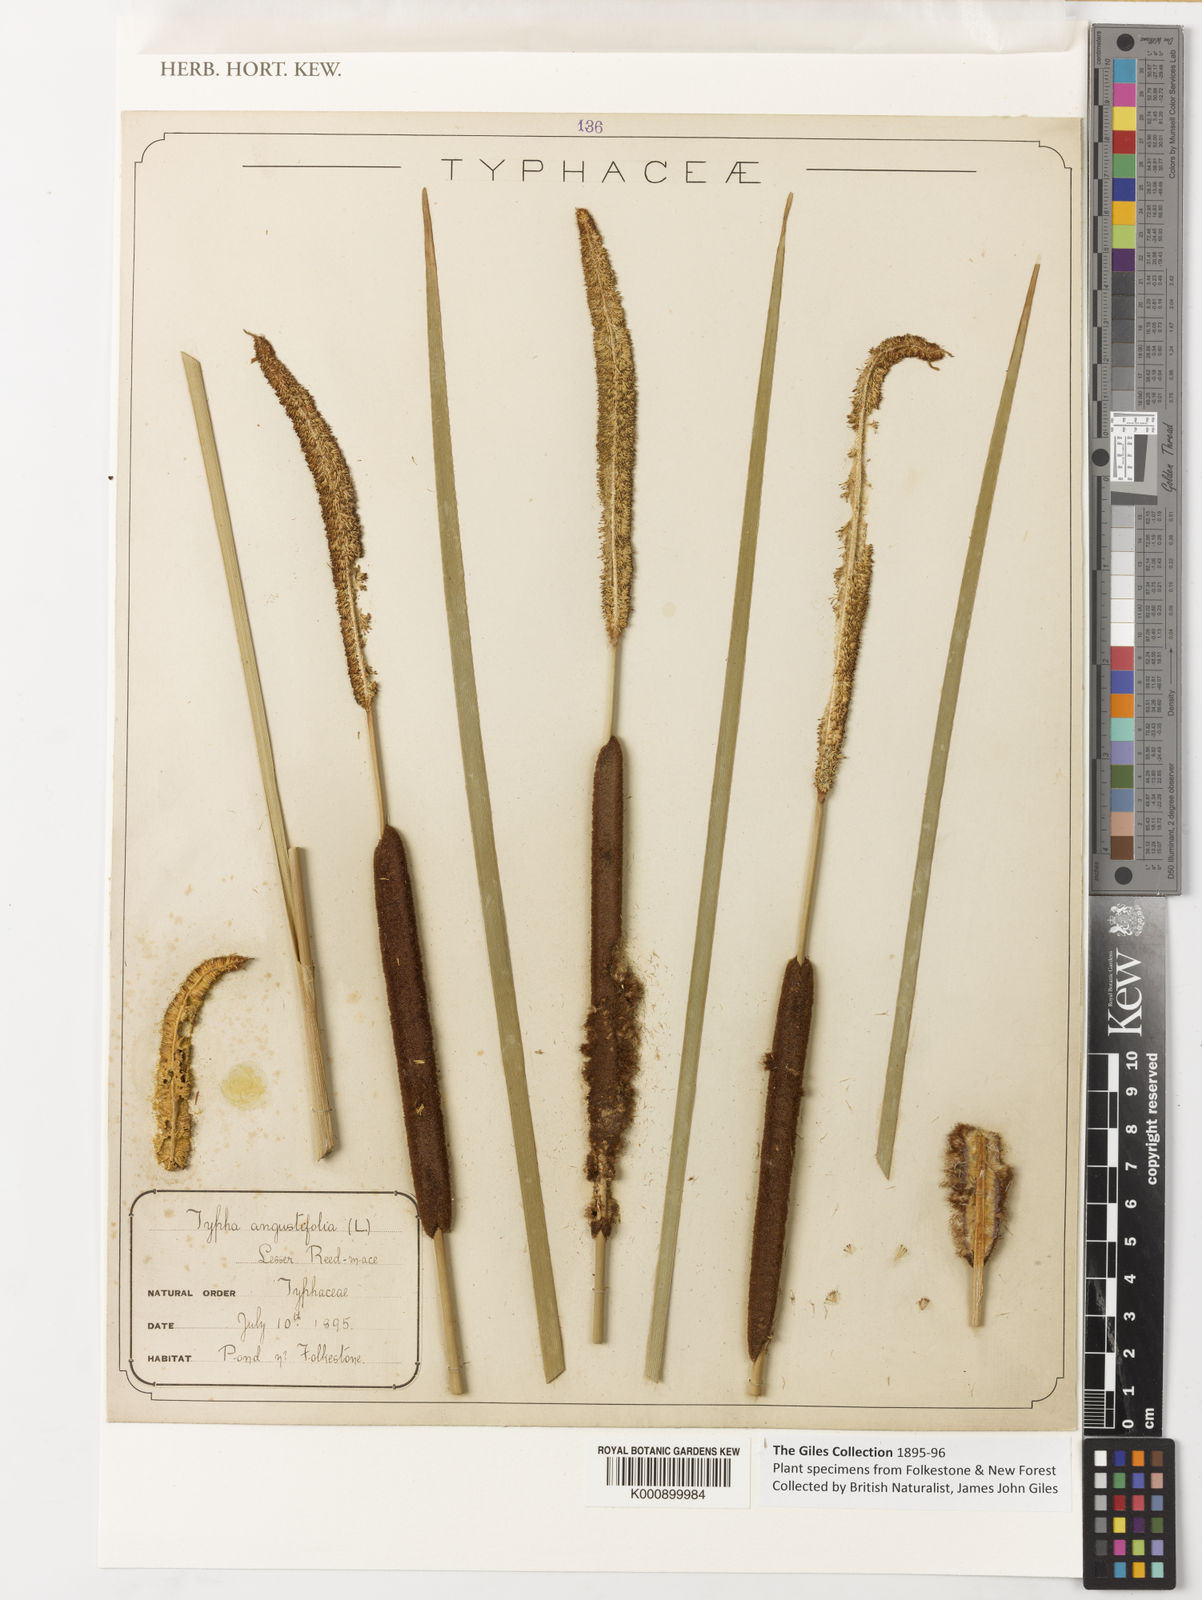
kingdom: Plantae
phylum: Tracheophyta
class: Liliopsida
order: Poales
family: Typhaceae
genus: Typha
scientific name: Typha angustifolia
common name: Lesser bulrush
